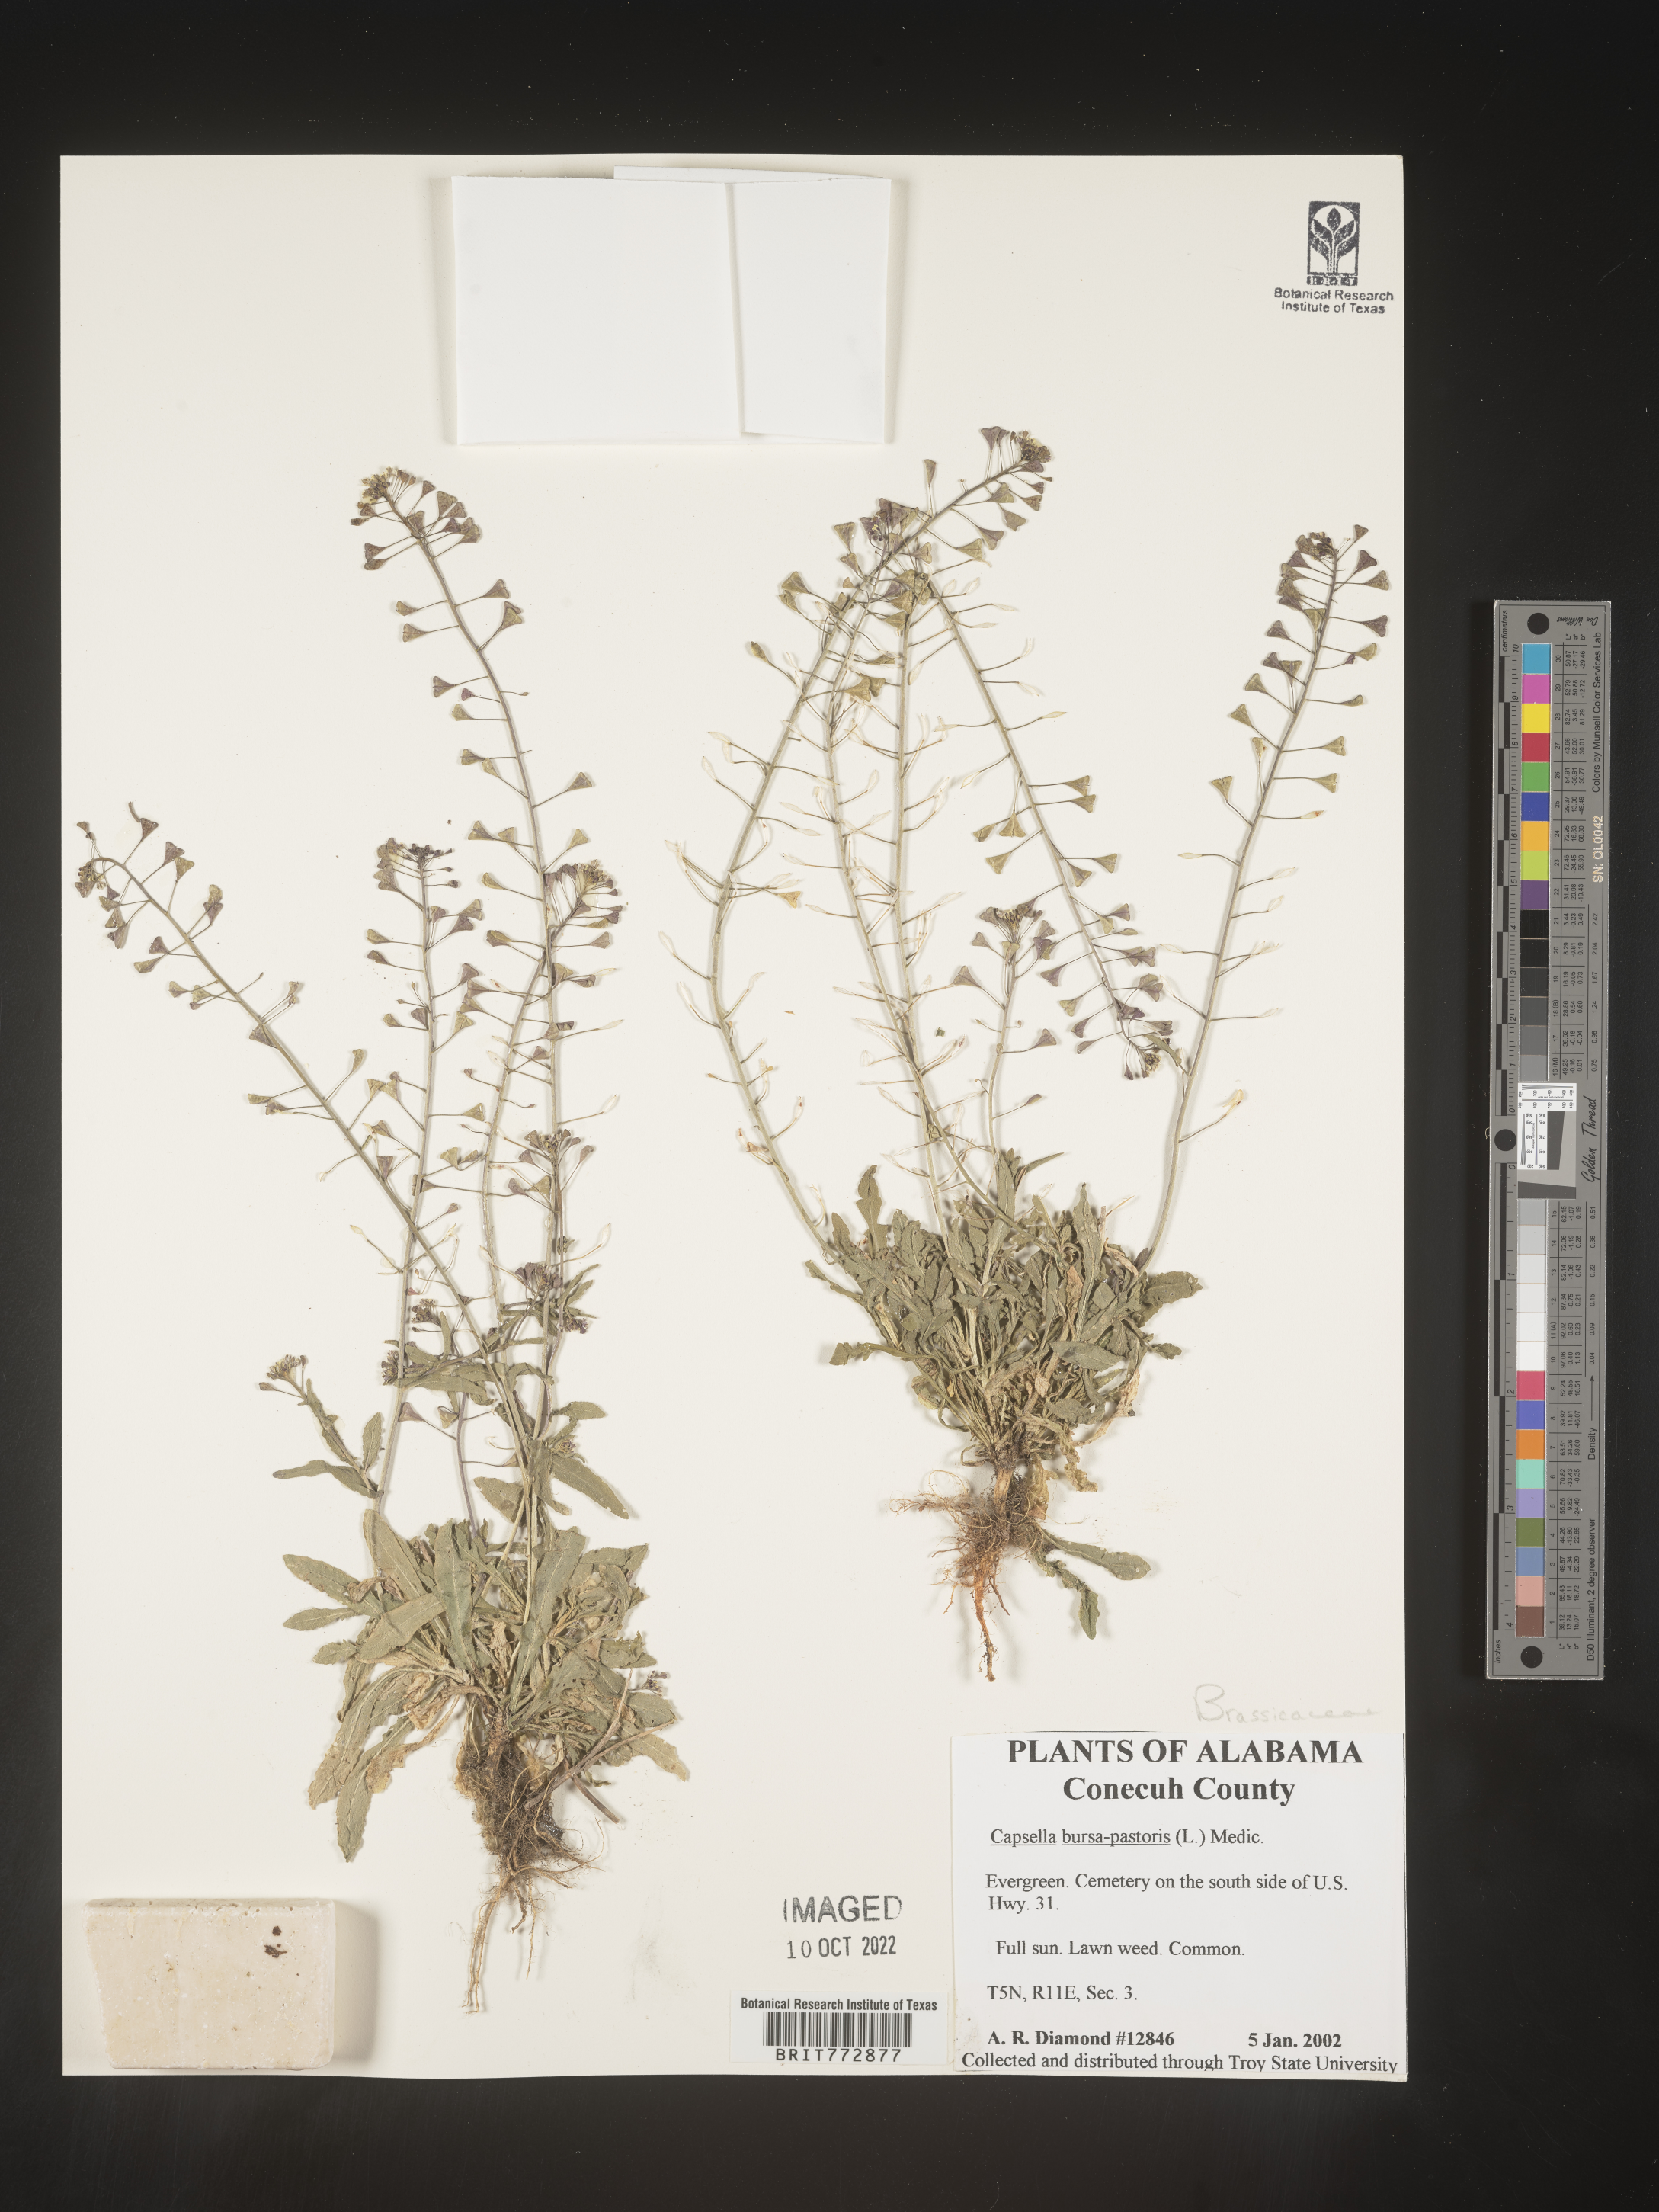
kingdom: Plantae
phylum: Tracheophyta
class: Magnoliopsida
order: Brassicales
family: Brassicaceae
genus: Capsella
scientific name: Capsella bursa-pastoris
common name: Shepherd's purse
